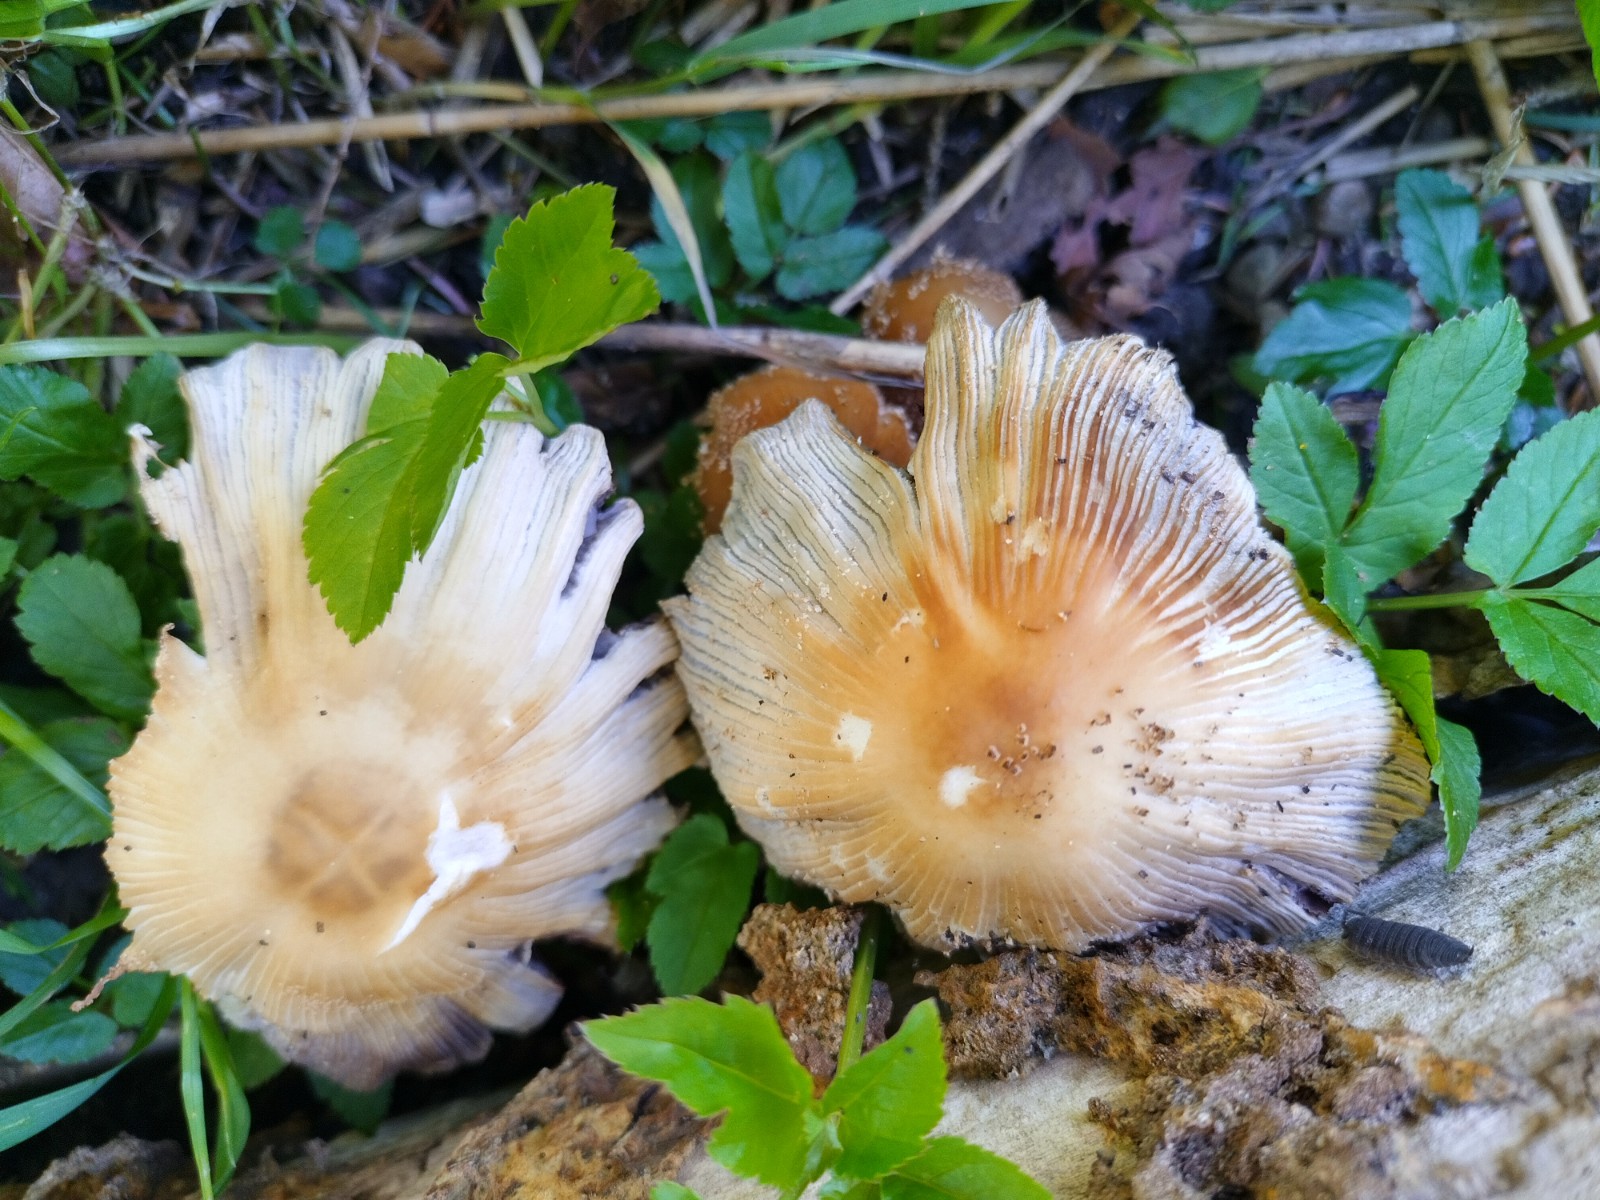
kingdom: Fungi
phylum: Basidiomycota
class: Agaricomycetes
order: Agaricales
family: Psathyrellaceae
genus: Coprinellus
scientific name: Coprinellus
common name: blækhat
